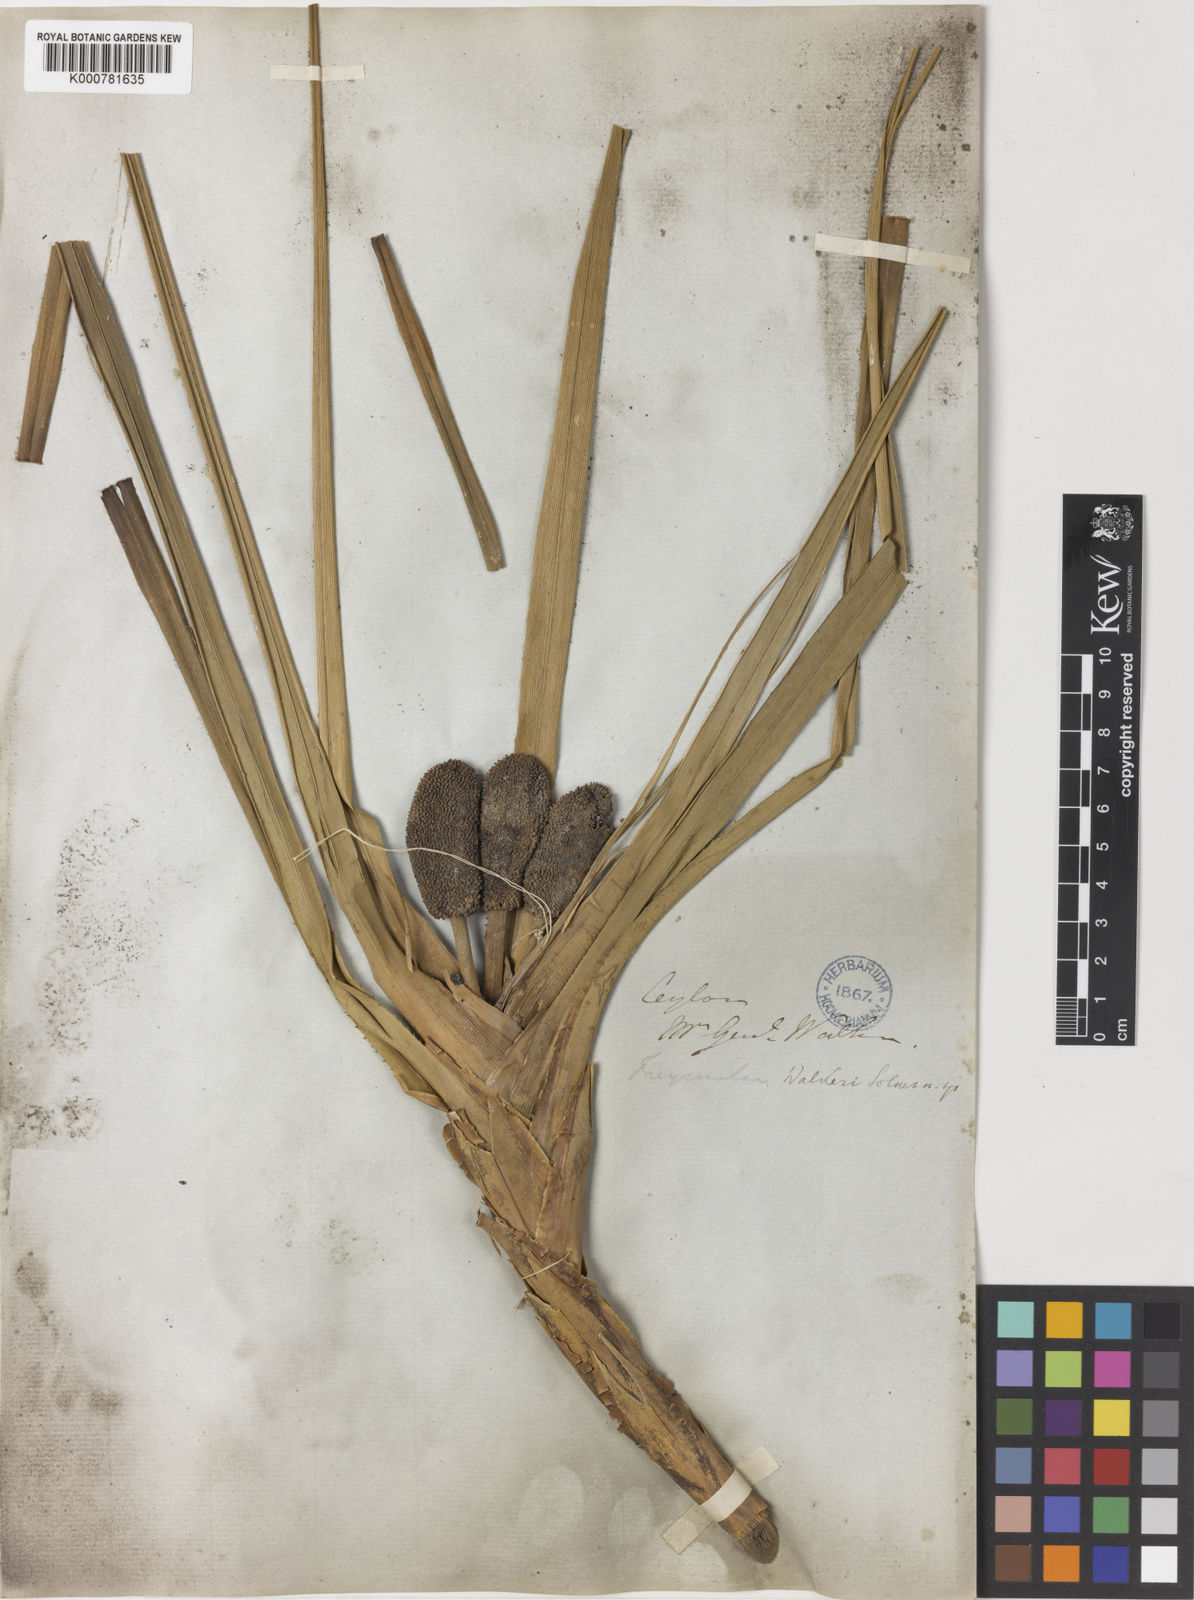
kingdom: Plantae
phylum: Tracheophyta
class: Liliopsida
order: Pandanales
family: Pandanaceae
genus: Freycinetia
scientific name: Freycinetia walkeri
